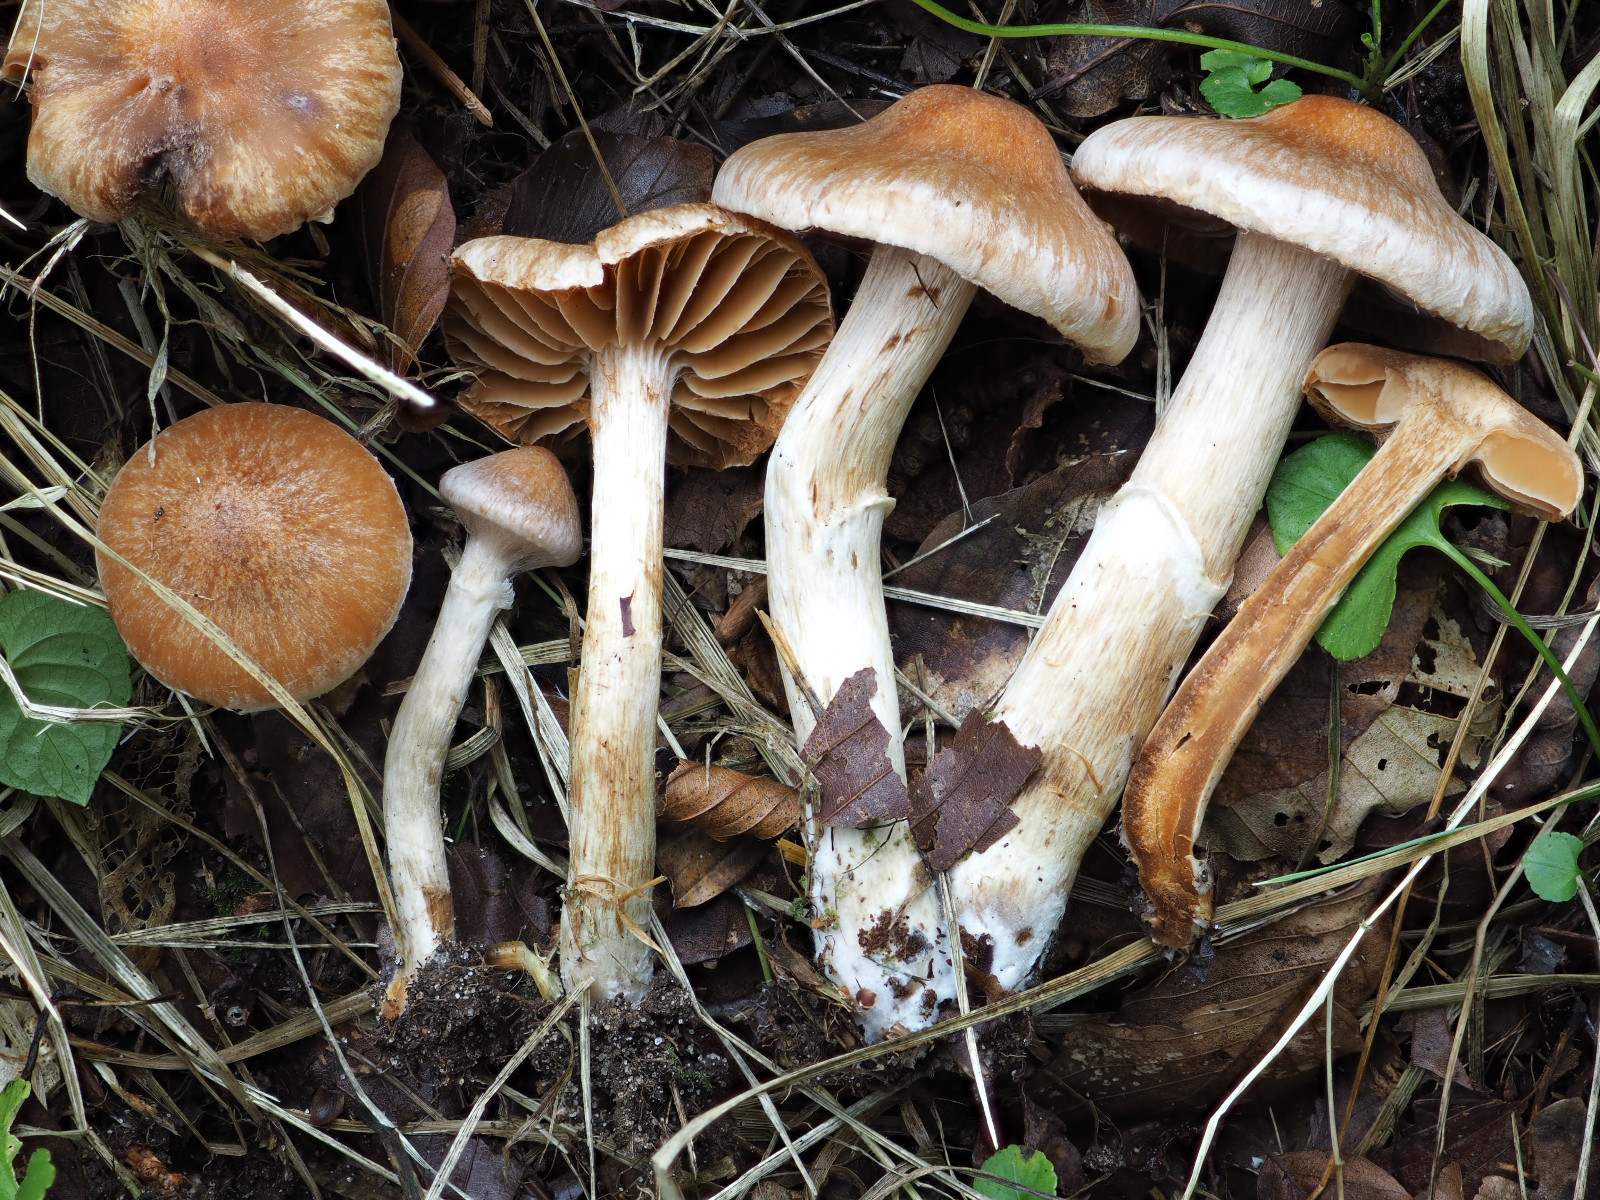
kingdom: Fungi
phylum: Basidiomycota
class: Agaricomycetes
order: Agaricales
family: Cortinariaceae
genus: Cortinarius
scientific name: Cortinarius luridus
